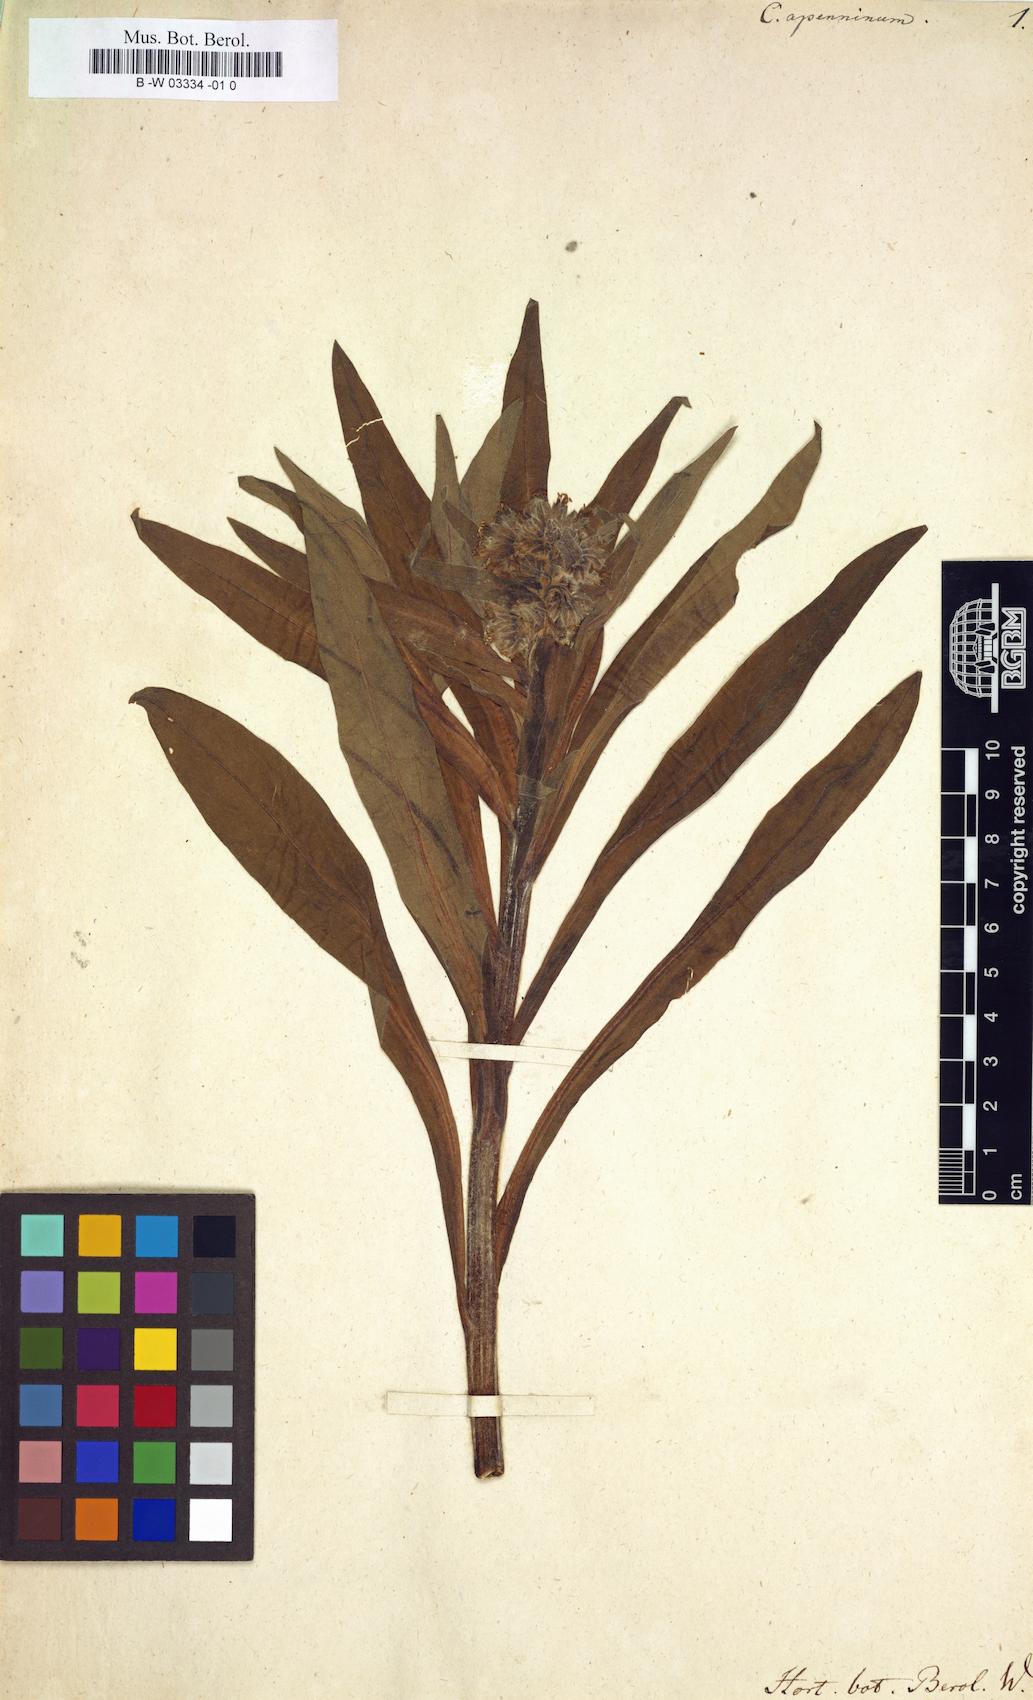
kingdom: Plantae
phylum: Tracheophyta
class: Magnoliopsida
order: Boraginales
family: Boraginaceae
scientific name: Boraginaceae
